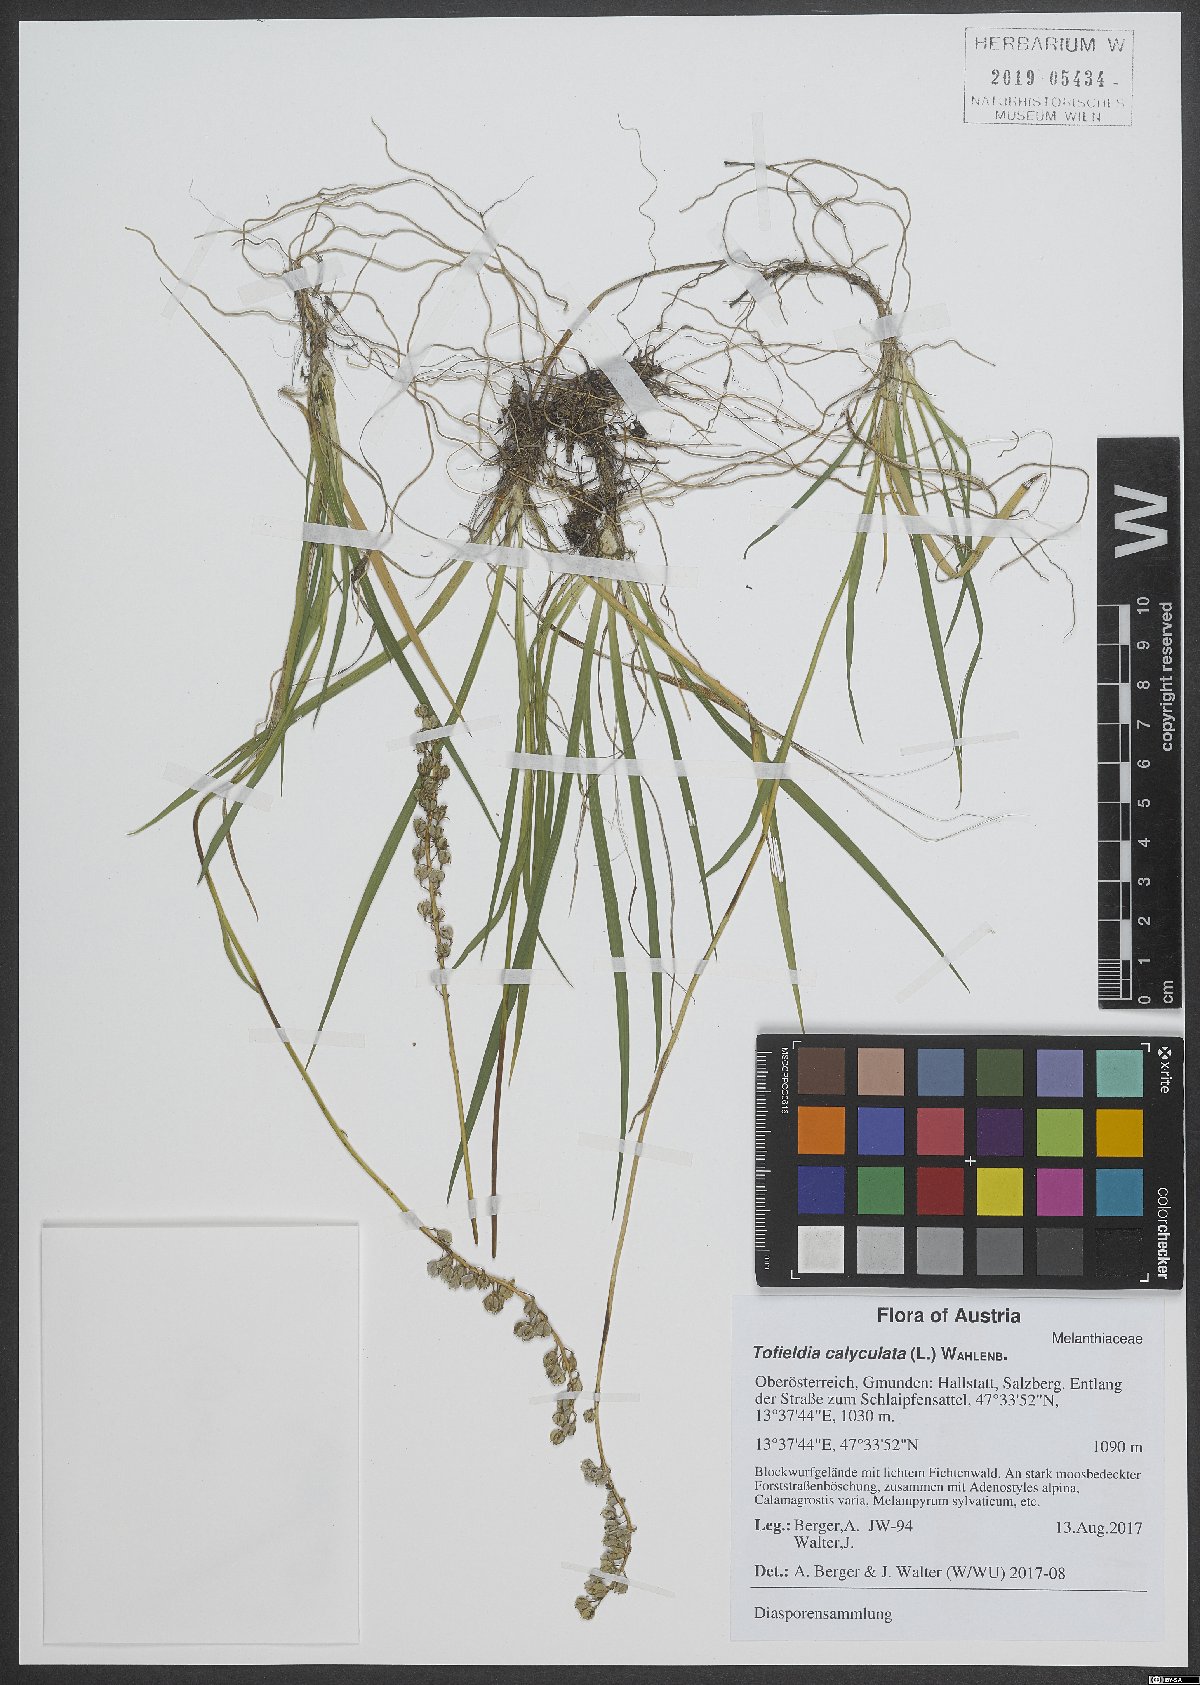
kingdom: Plantae
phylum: Tracheophyta
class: Liliopsida
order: Alismatales
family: Tofieldiaceae
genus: Tofieldia
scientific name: Tofieldia calyculata
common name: German-asphodel
